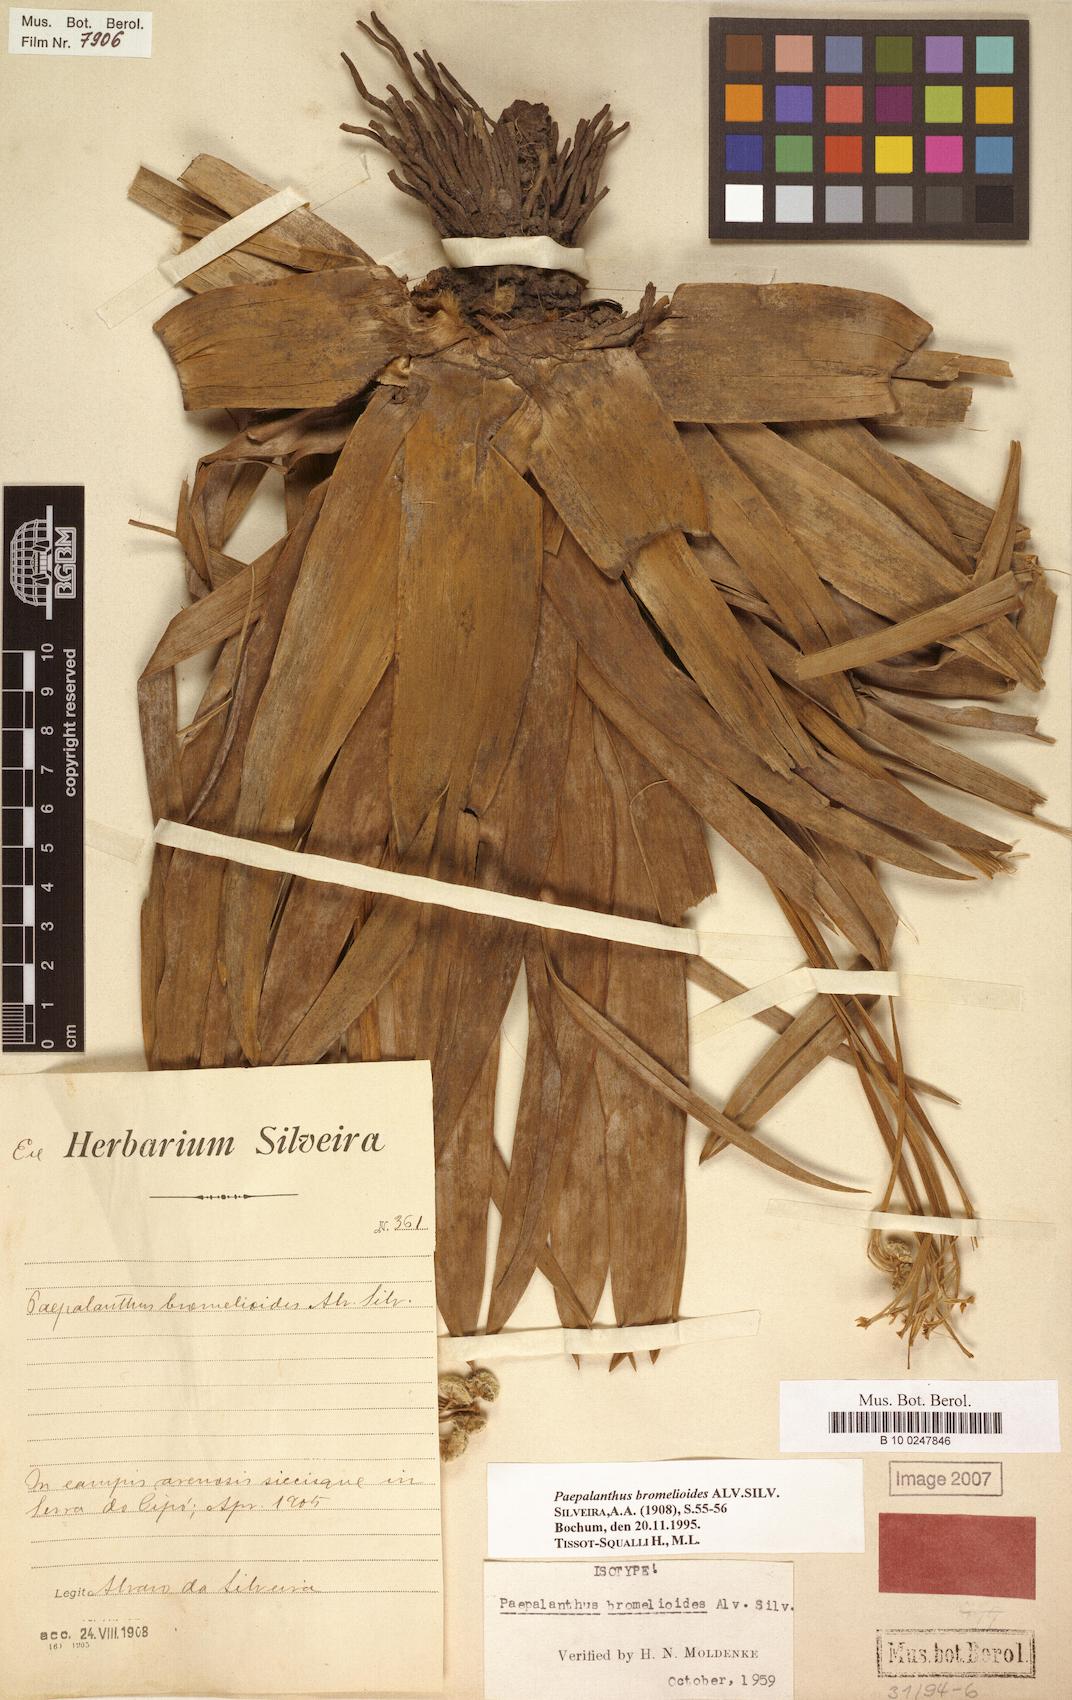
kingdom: Plantae
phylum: Tracheophyta
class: Liliopsida
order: Poales
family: Eriocaulaceae
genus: Paepalanthus
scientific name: Paepalanthus bromelioides
